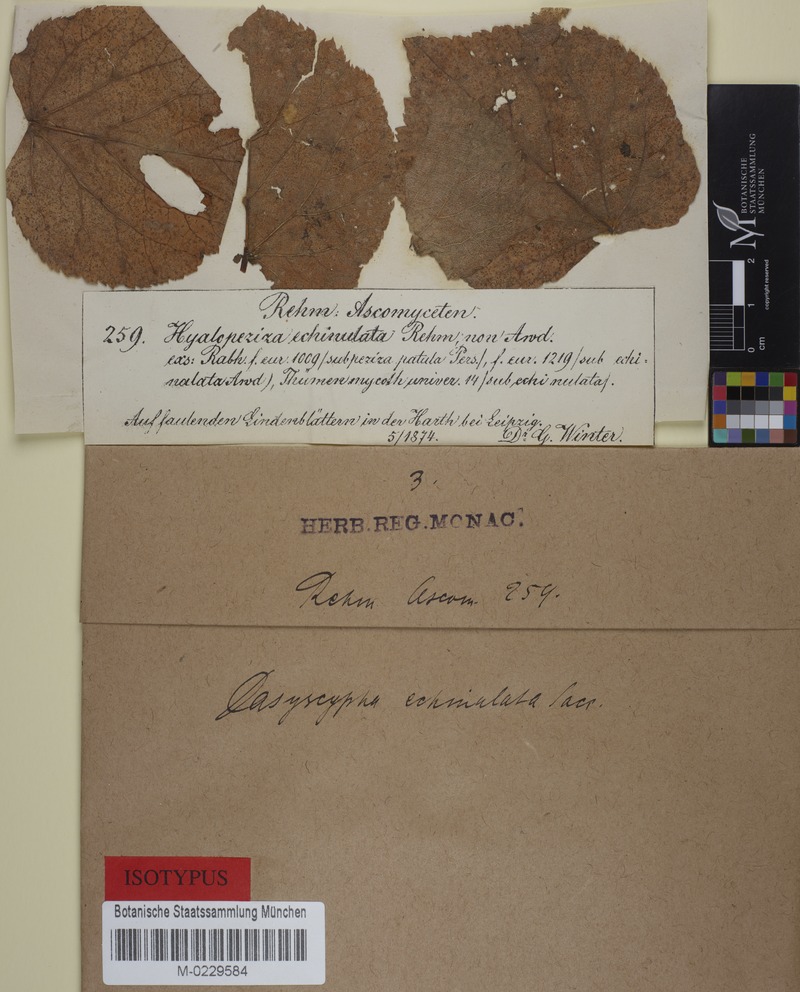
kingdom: Fungi
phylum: Ascomycota
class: Leotiomycetes
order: Helotiales
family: Lachnaceae
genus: Lachnum
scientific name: Lachnum echinulatum
